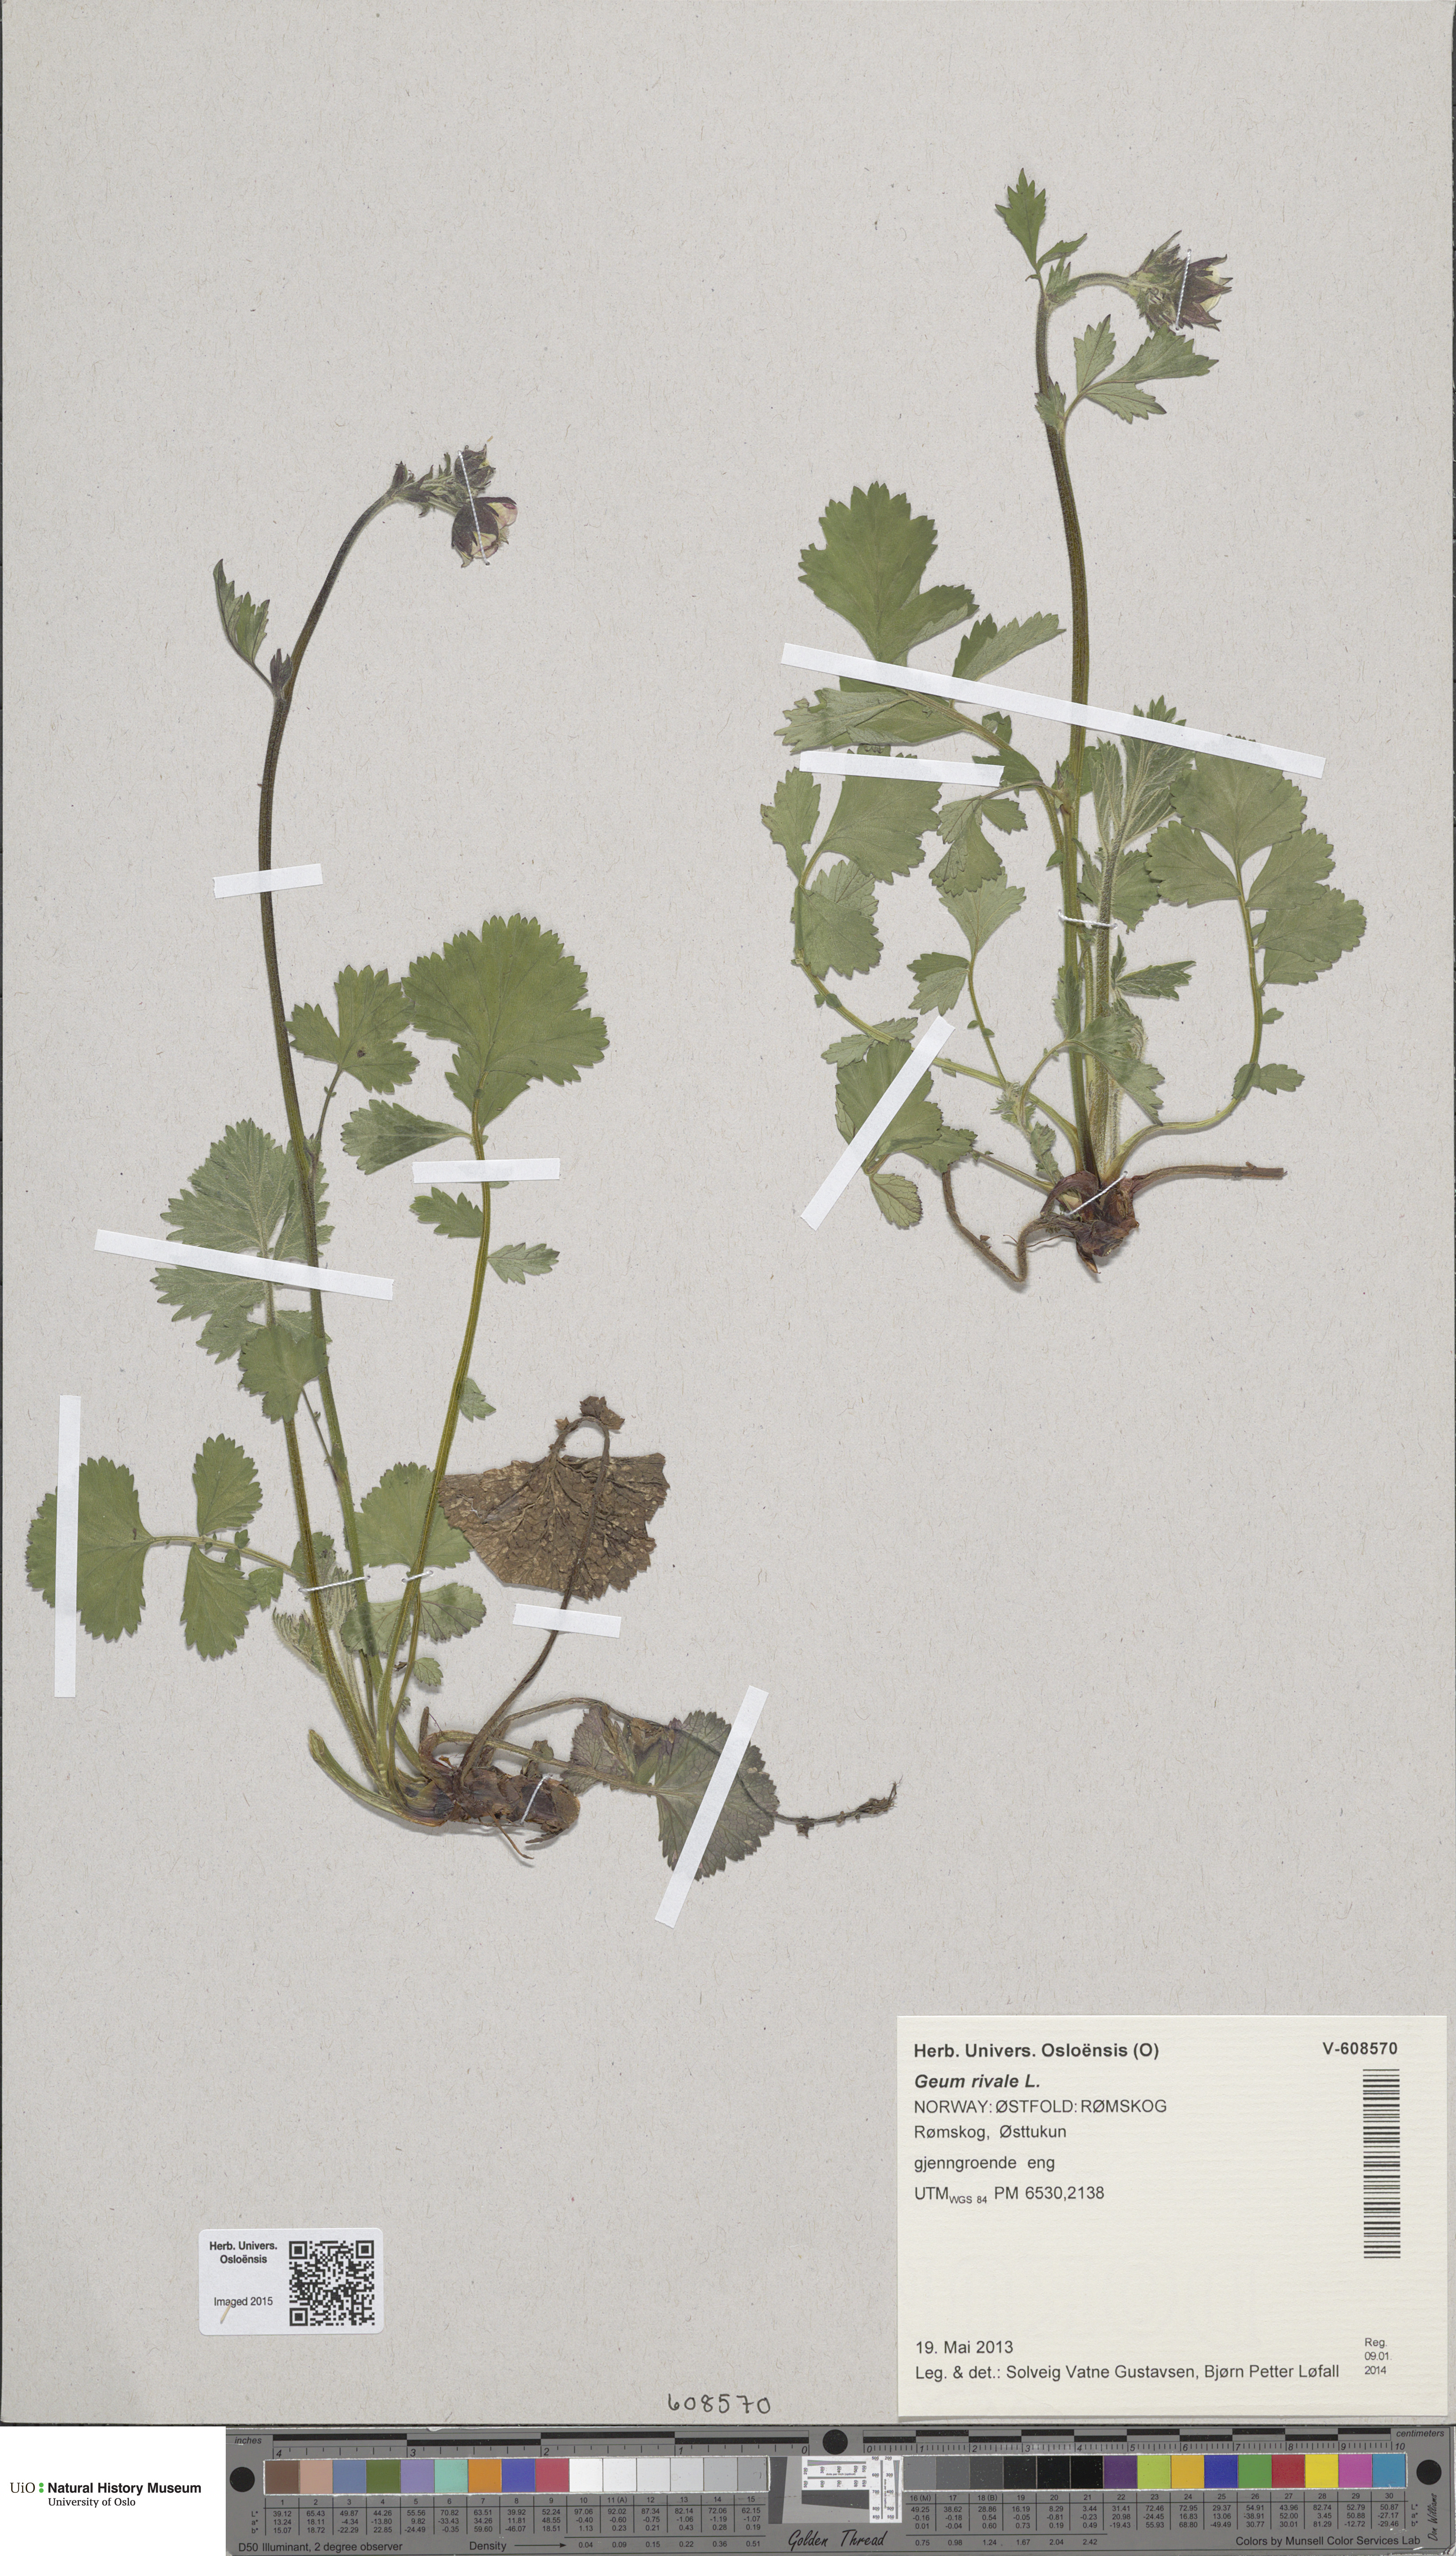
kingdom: Plantae
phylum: Tracheophyta
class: Magnoliopsida
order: Rosales
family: Rosaceae
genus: Geum
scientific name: Geum rivale
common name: Water avens
